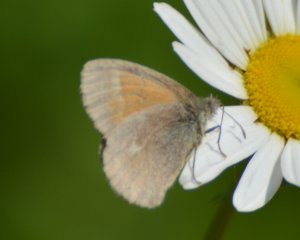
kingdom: Animalia
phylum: Arthropoda
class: Insecta
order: Lepidoptera
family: Nymphalidae
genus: Coenonympha
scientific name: Coenonympha tullia
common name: Large Heath
